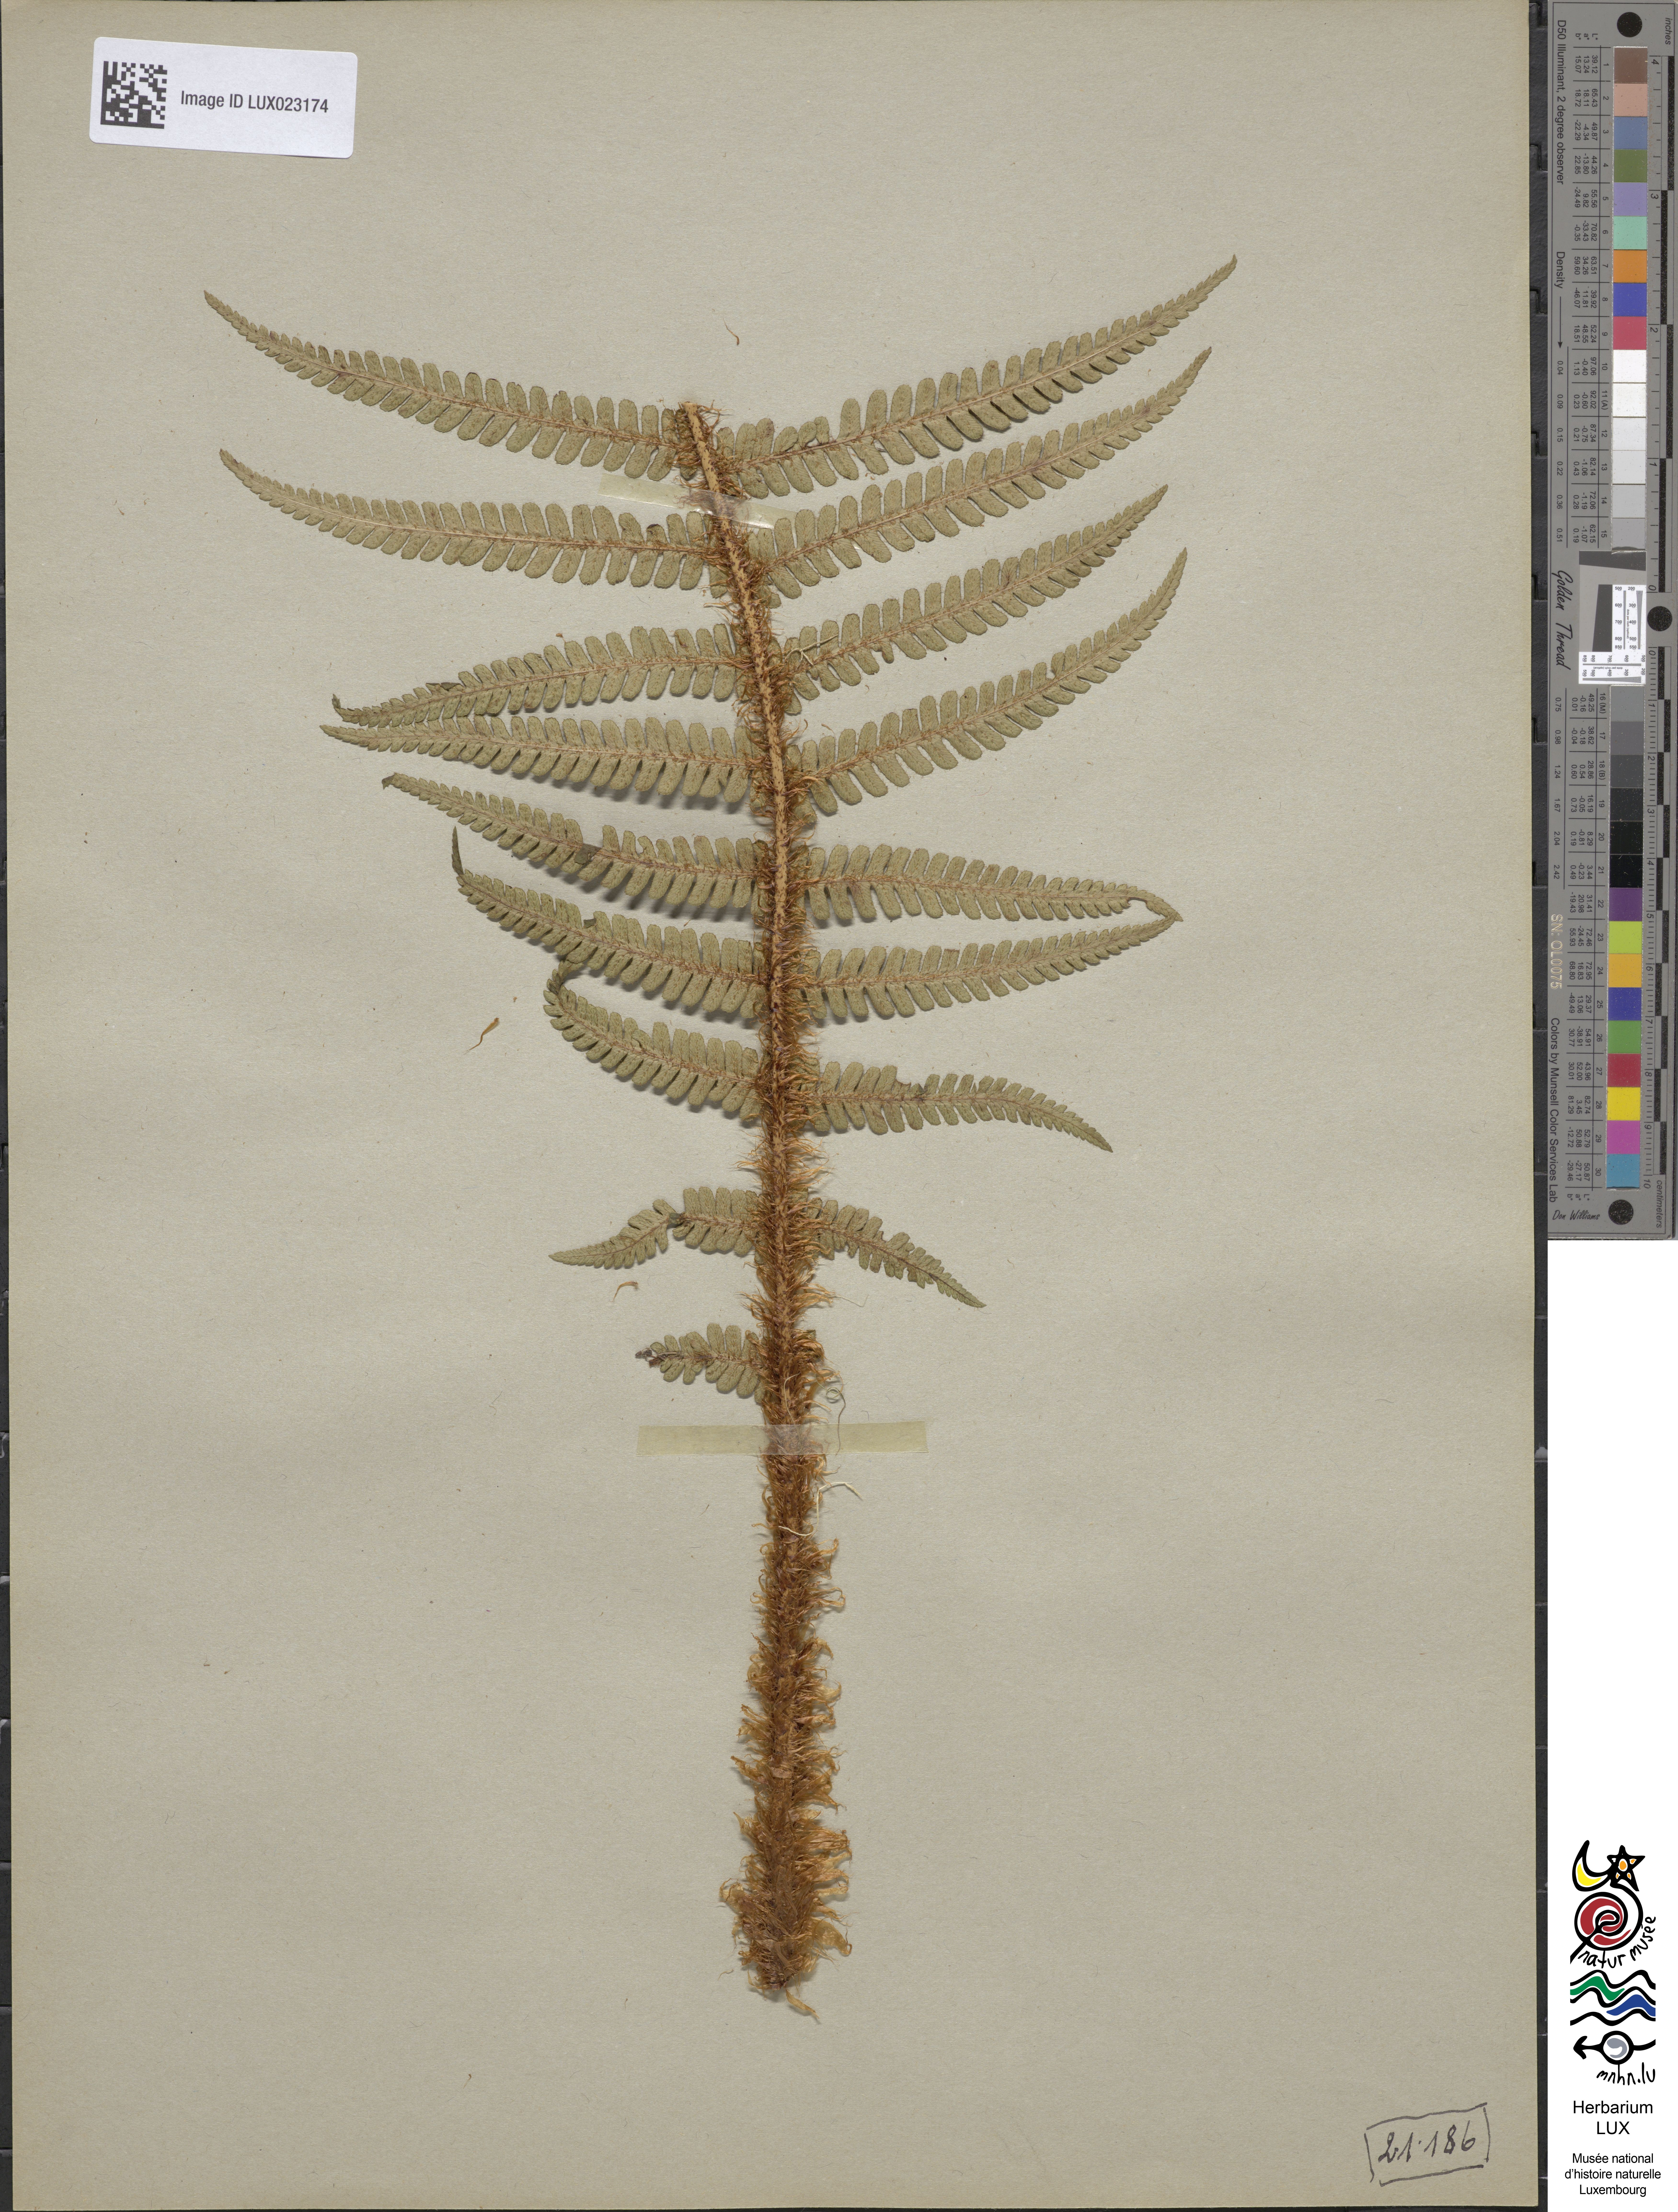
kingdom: Plantae
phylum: Tracheophyta
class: Polypodiopsida
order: Polypodiales
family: Dryopteridaceae
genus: Dryopteris
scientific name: Dryopteris borreri
